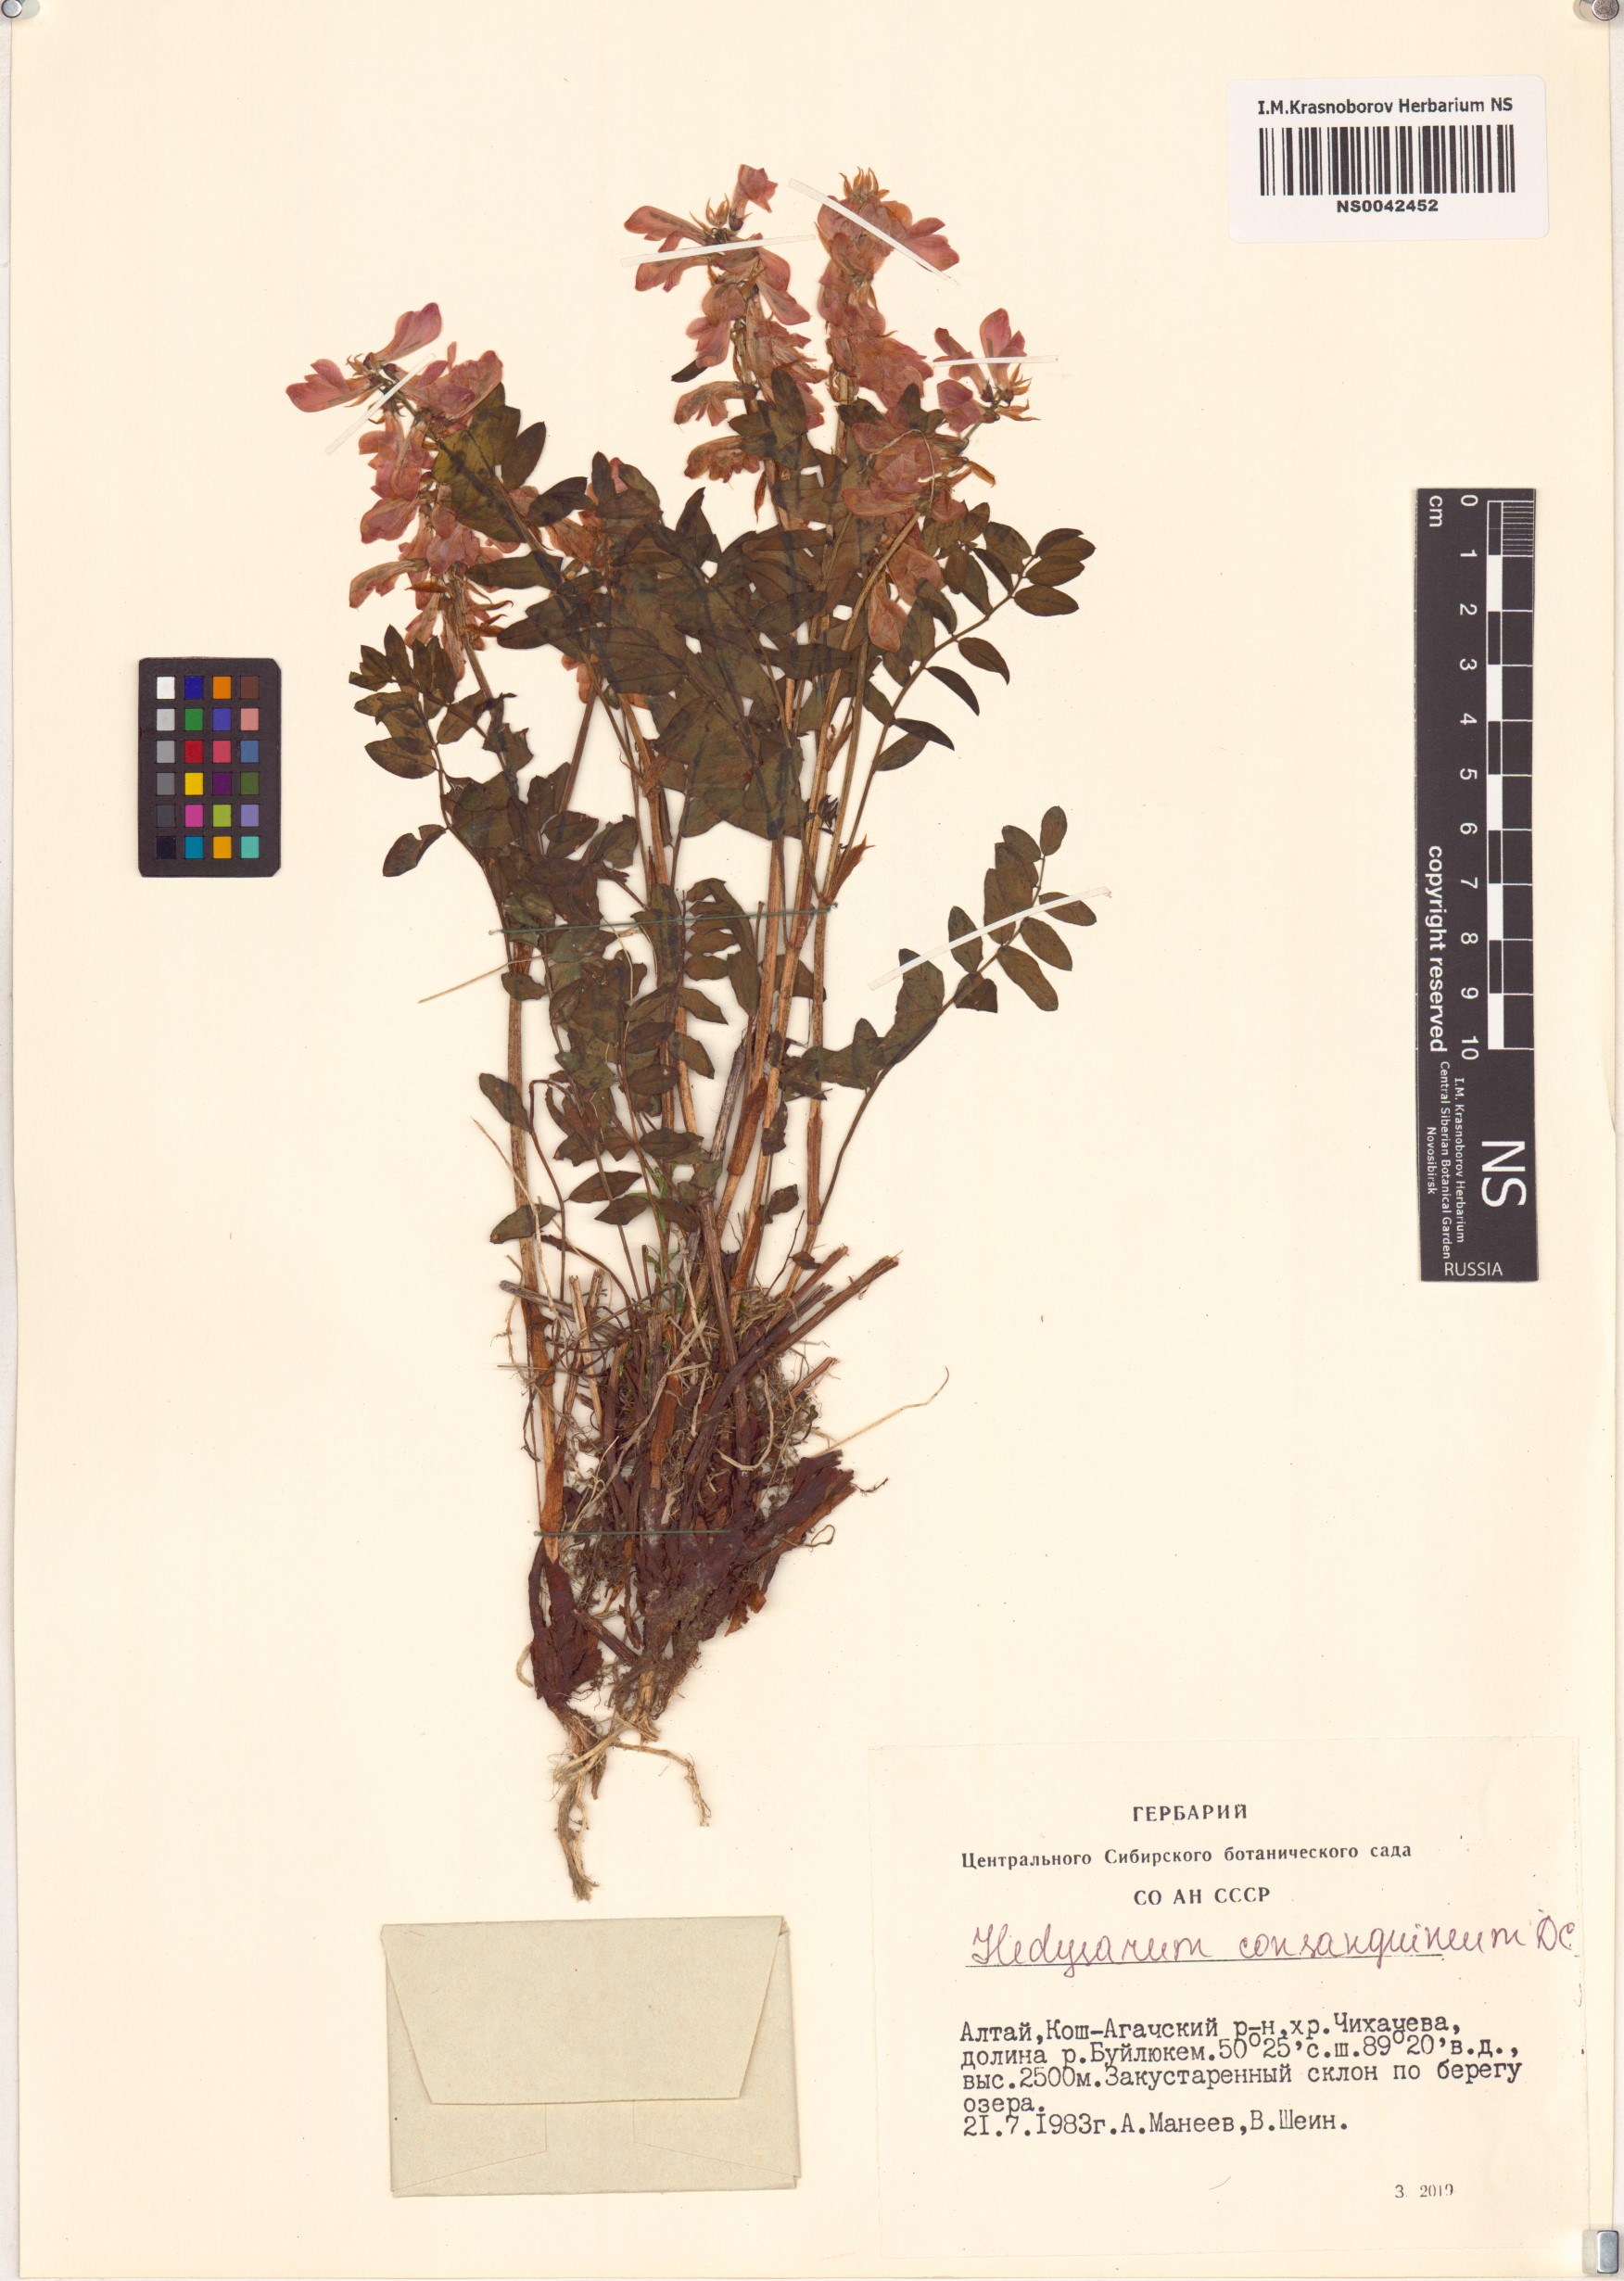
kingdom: Plantae
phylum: Tracheophyta
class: Magnoliopsida
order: Fabales
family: Fabaceae
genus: Hedysarum
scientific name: Hedysarum consanguineum
